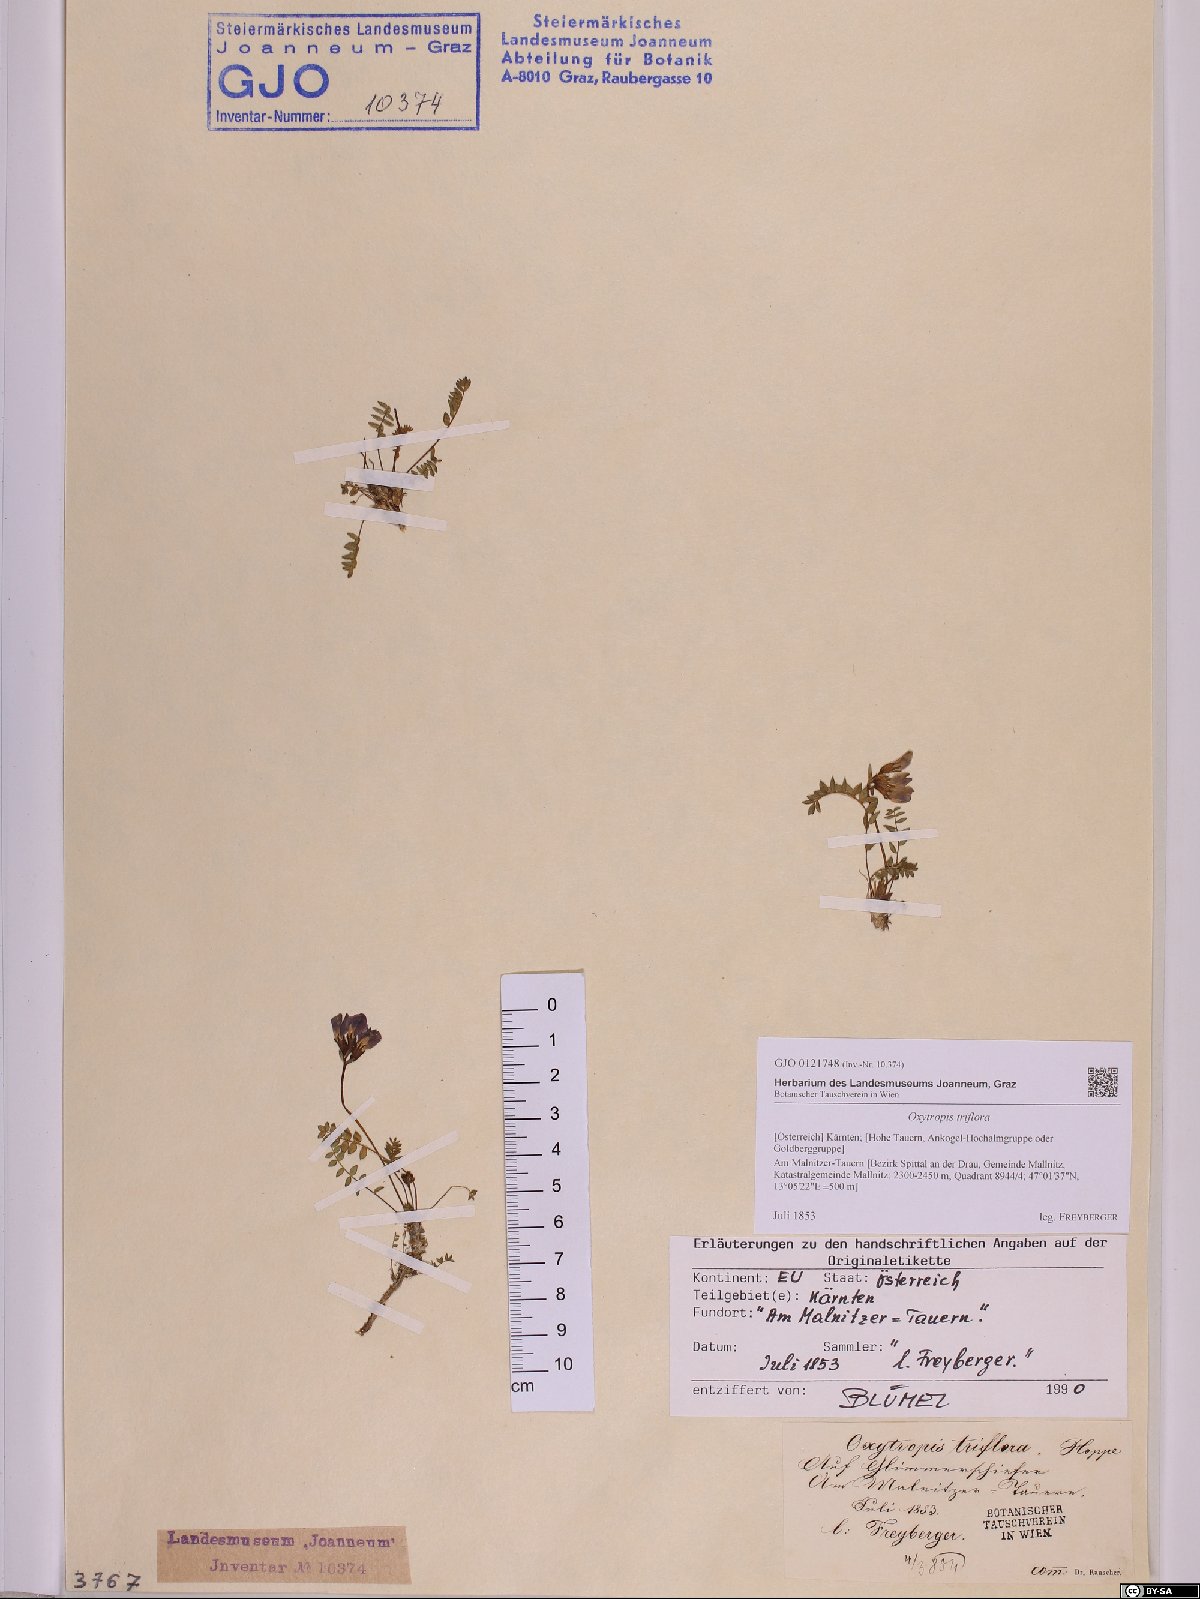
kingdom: Plantae
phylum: Tracheophyta
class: Magnoliopsida
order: Fabales
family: Fabaceae
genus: Oxytropis
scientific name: Oxytropis triflora
